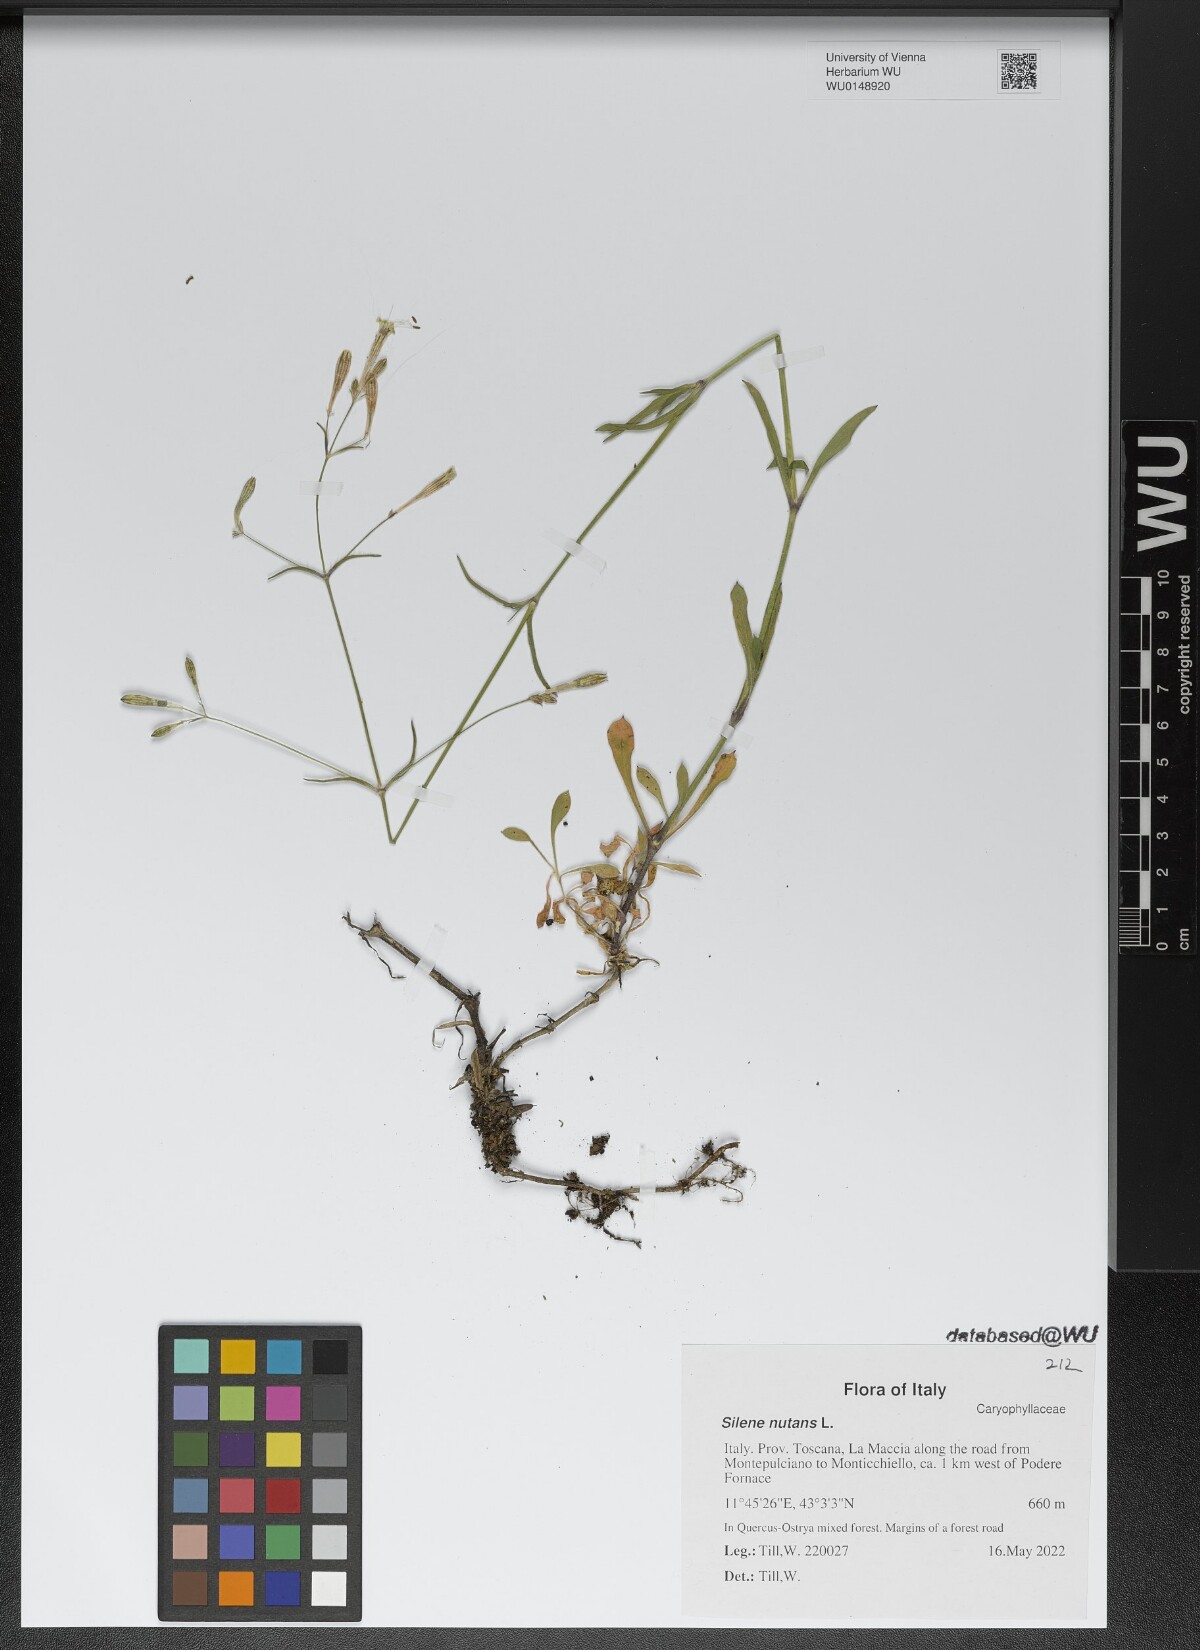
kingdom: Plantae
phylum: Tracheophyta
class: Magnoliopsida
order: Caryophyllales
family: Caryophyllaceae
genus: Silene
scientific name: Silene nutans
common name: Nottingham catchfly
